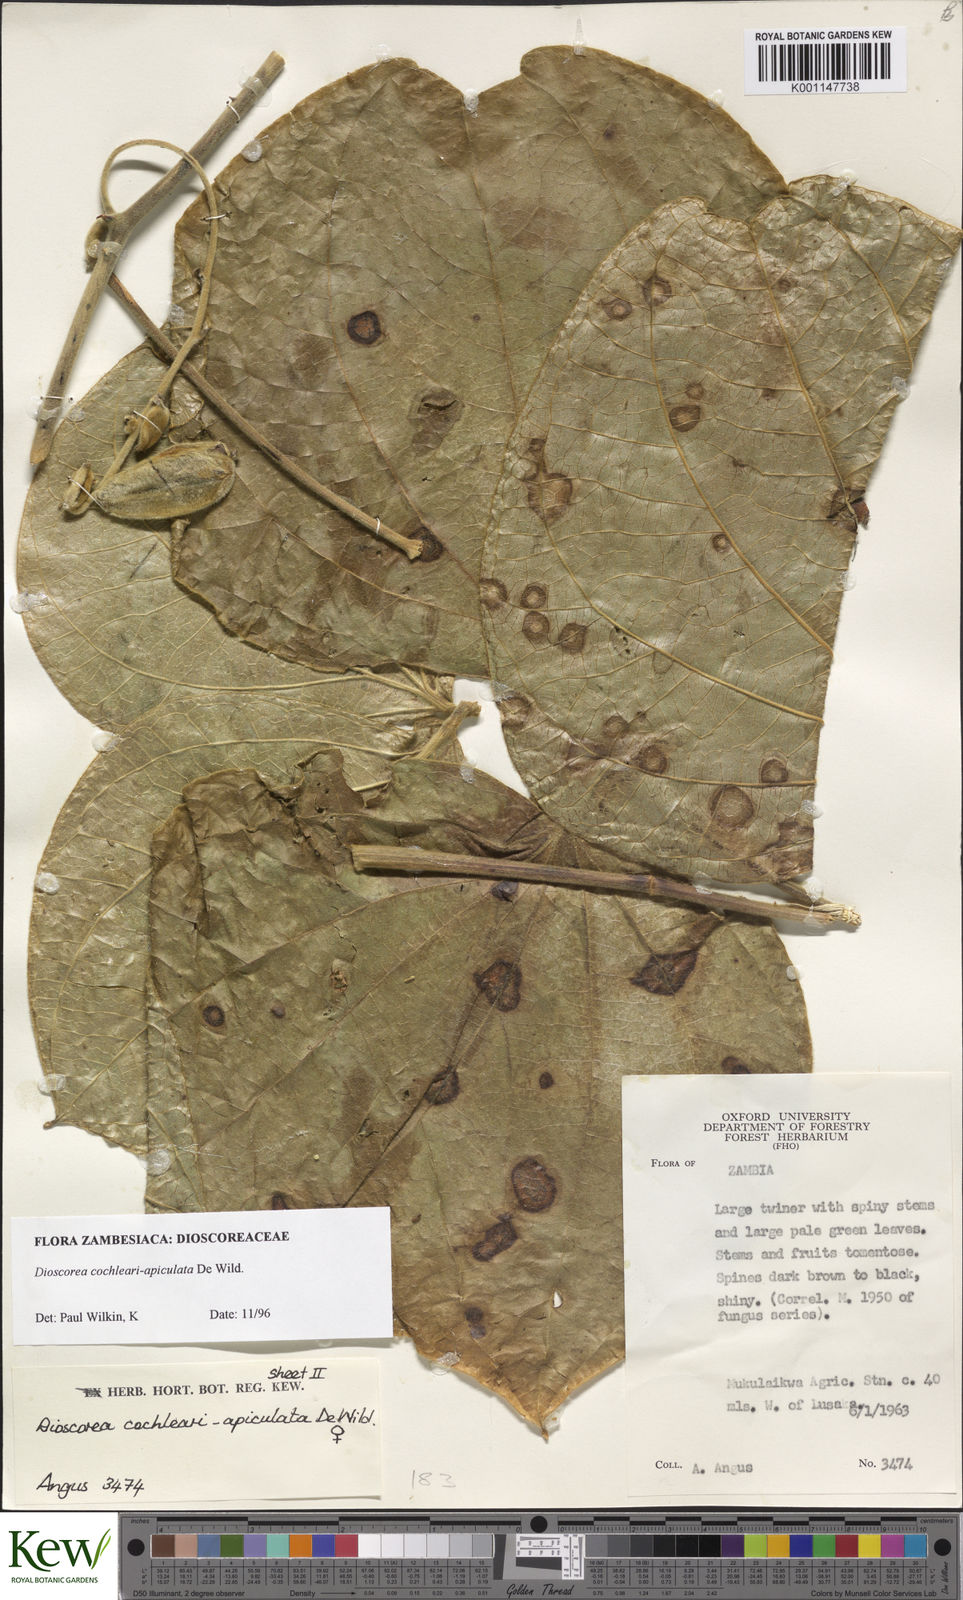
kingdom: Plantae
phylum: Tracheophyta
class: Liliopsida
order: Dioscoreales
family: Dioscoreaceae
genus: Dioscorea
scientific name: Dioscorea cochleariapiculata
